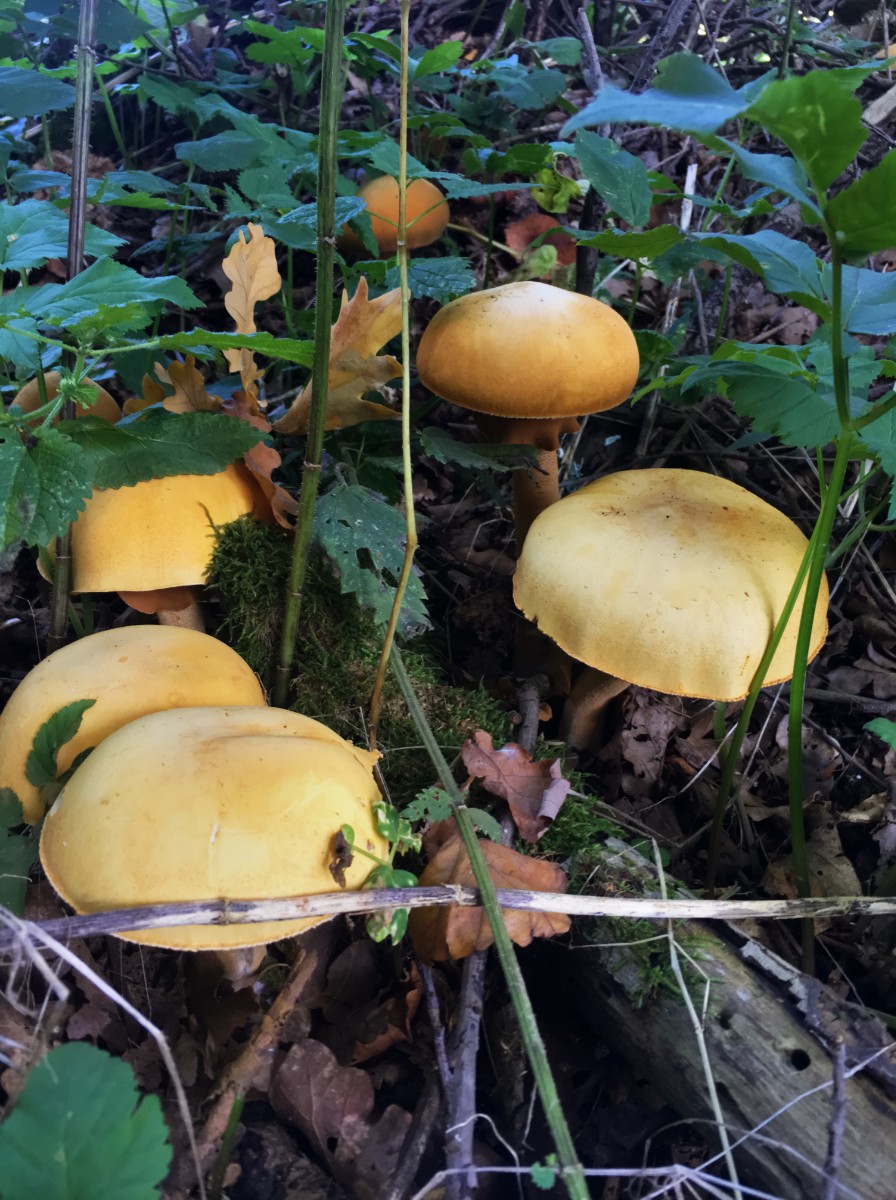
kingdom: Fungi
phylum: Basidiomycota
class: Agaricomycetes
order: Agaricales
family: Tricholomataceae
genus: Phaeolepiota
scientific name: Phaeolepiota aurea
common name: gyldenhat
